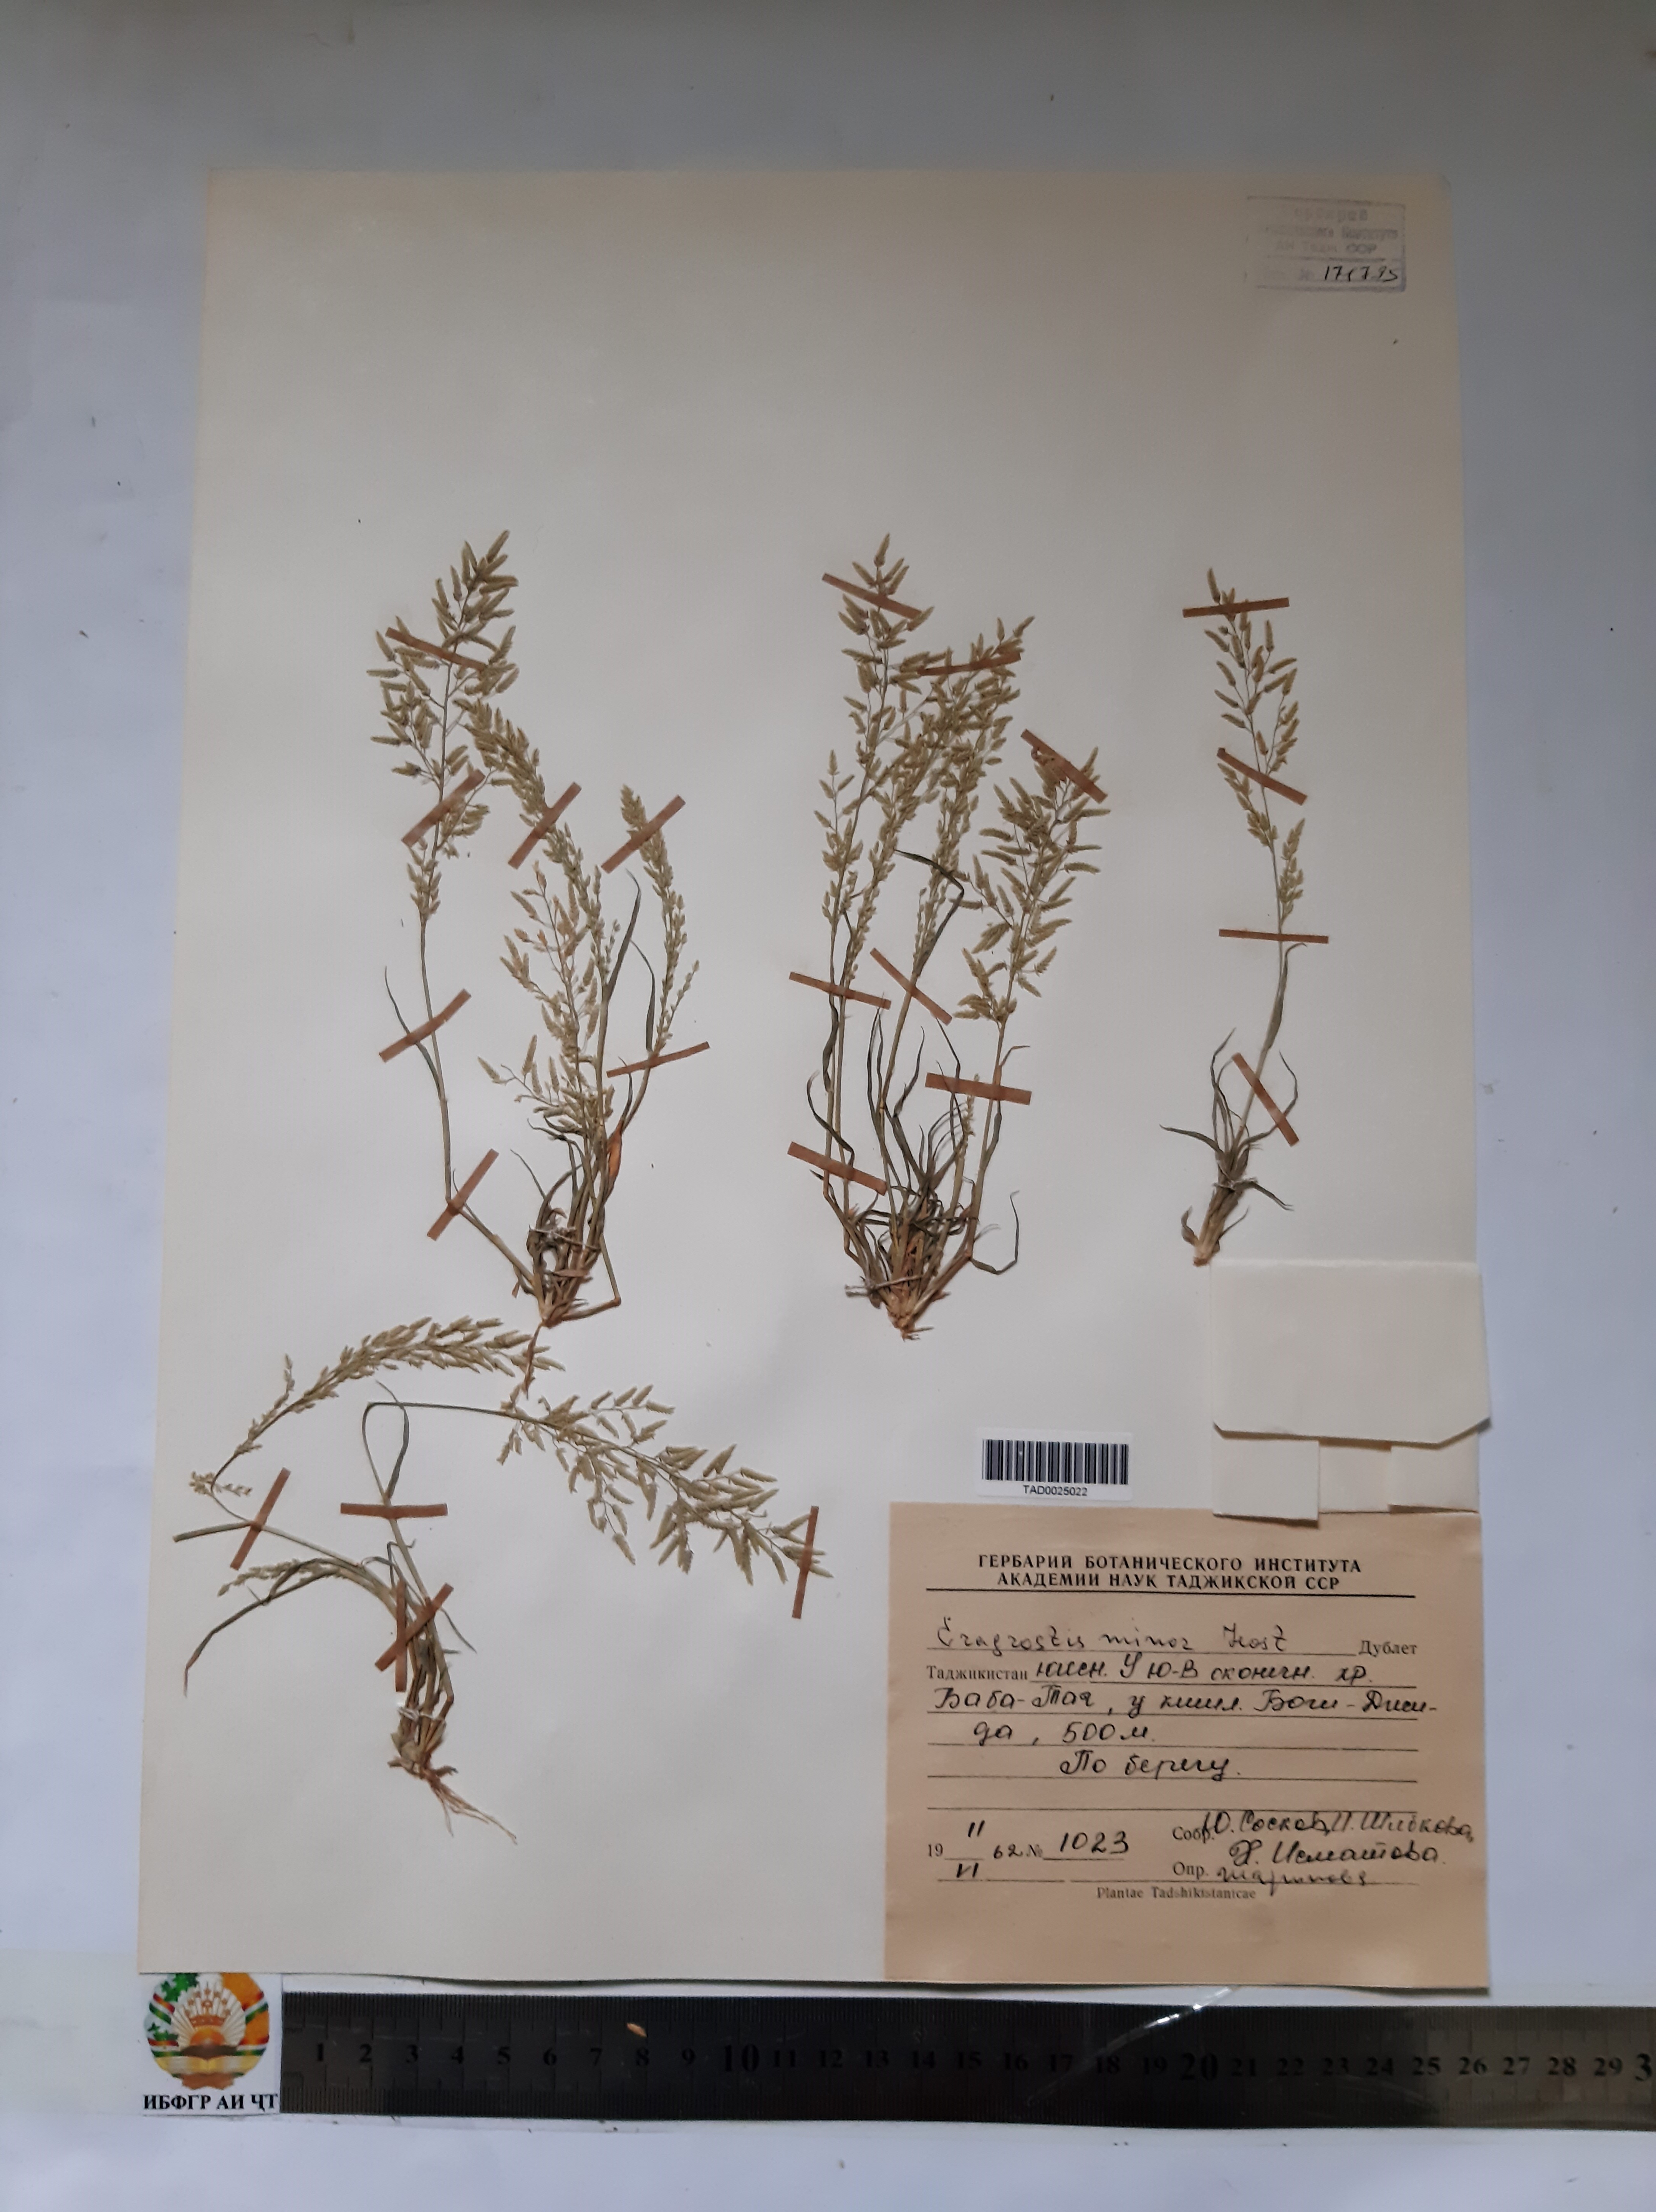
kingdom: Plantae
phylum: Tracheophyta
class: Liliopsida
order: Poales
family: Poaceae
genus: Eragrostis
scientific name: Eragrostis minor
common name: Small love-grass
